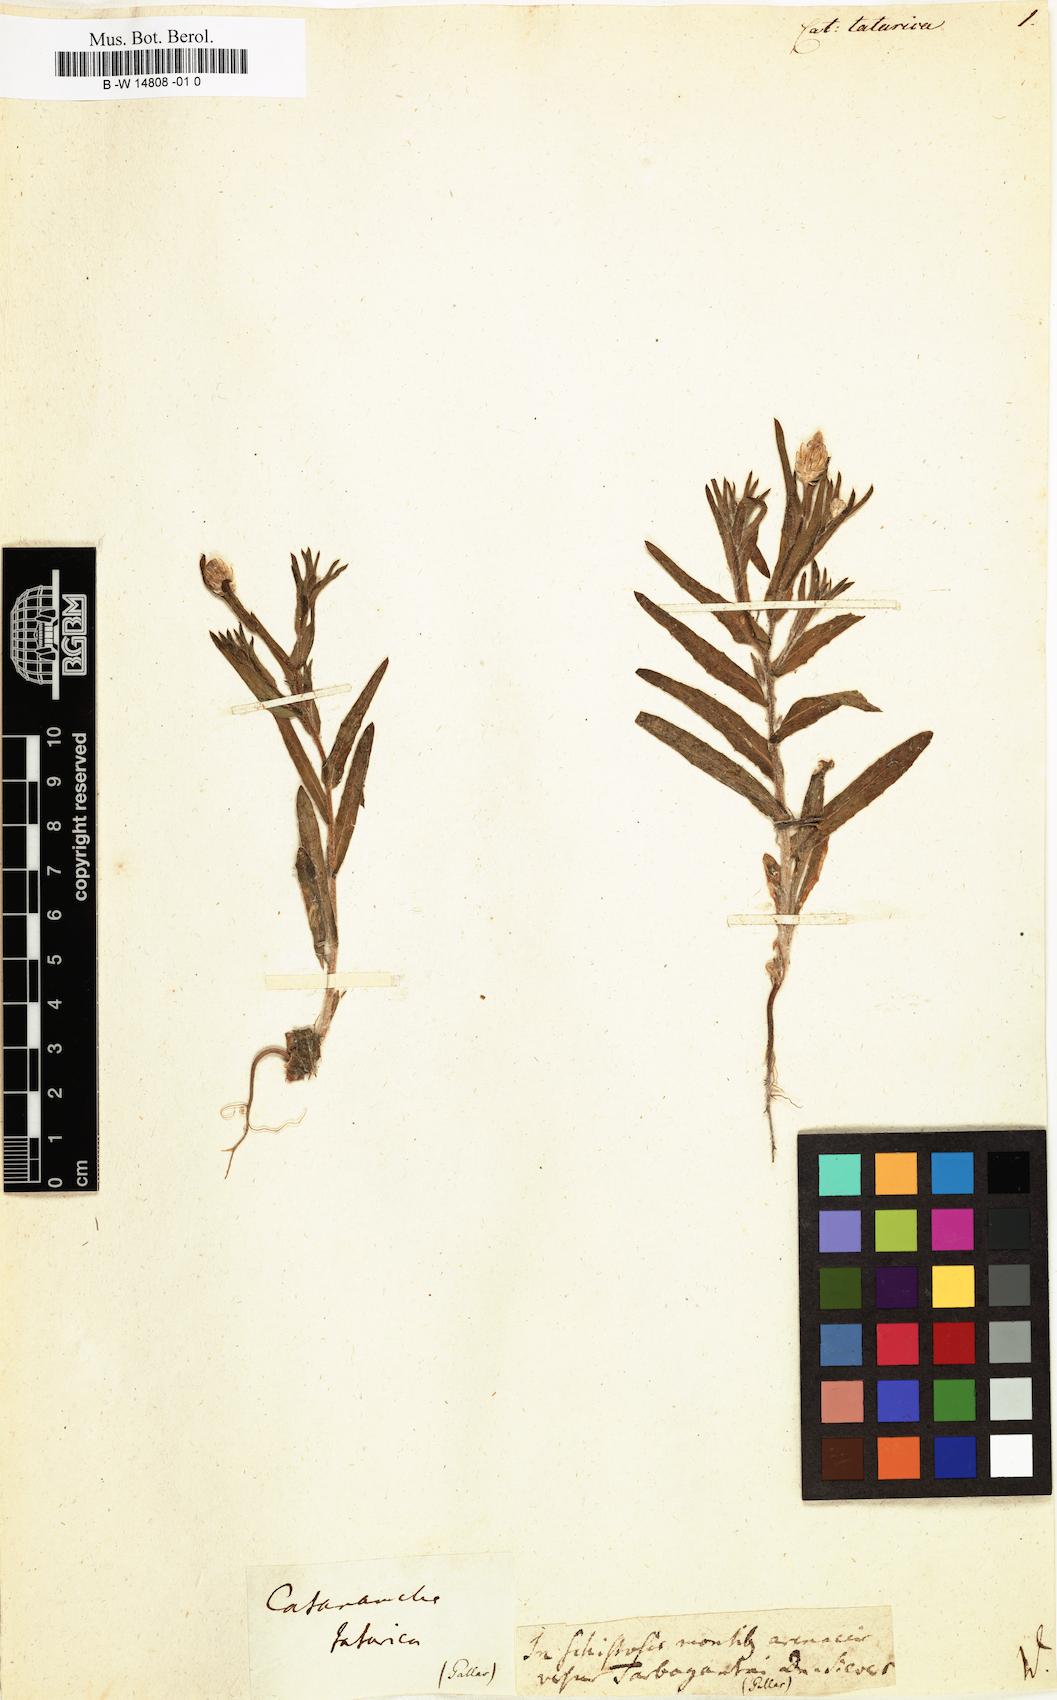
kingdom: Plantae
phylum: Tracheophyta
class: Magnoliopsida
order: Asterales
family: Asteraceae
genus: Catananche
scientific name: Catananche
